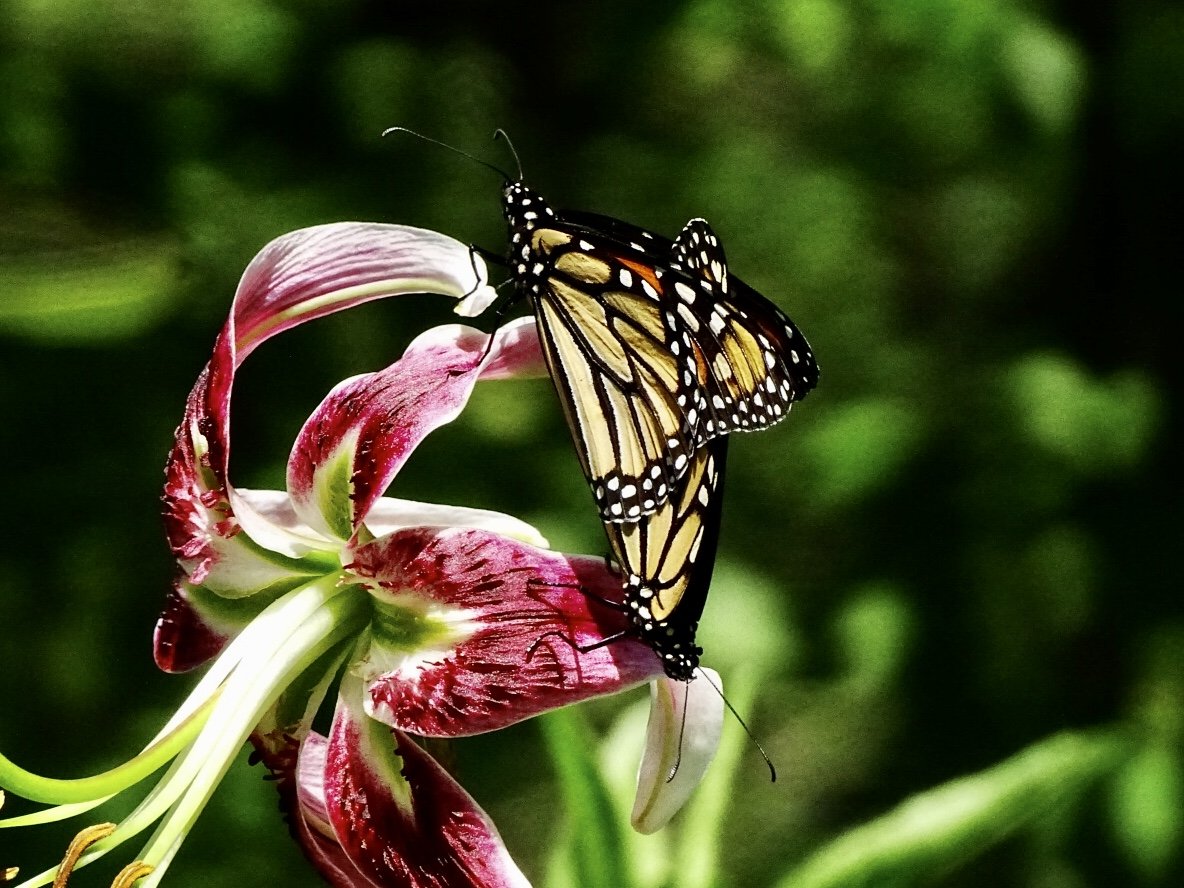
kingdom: Animalia
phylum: Arthropoda
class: Insecta
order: Lepidoptera
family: Nymphalidae
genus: Danaus
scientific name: Danaus plexippus
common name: Monarch
